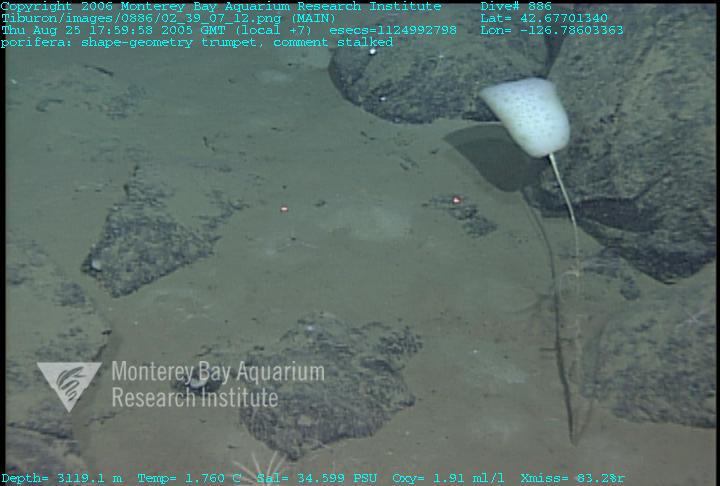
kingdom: Animalia
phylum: Porifera
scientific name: Porifera
